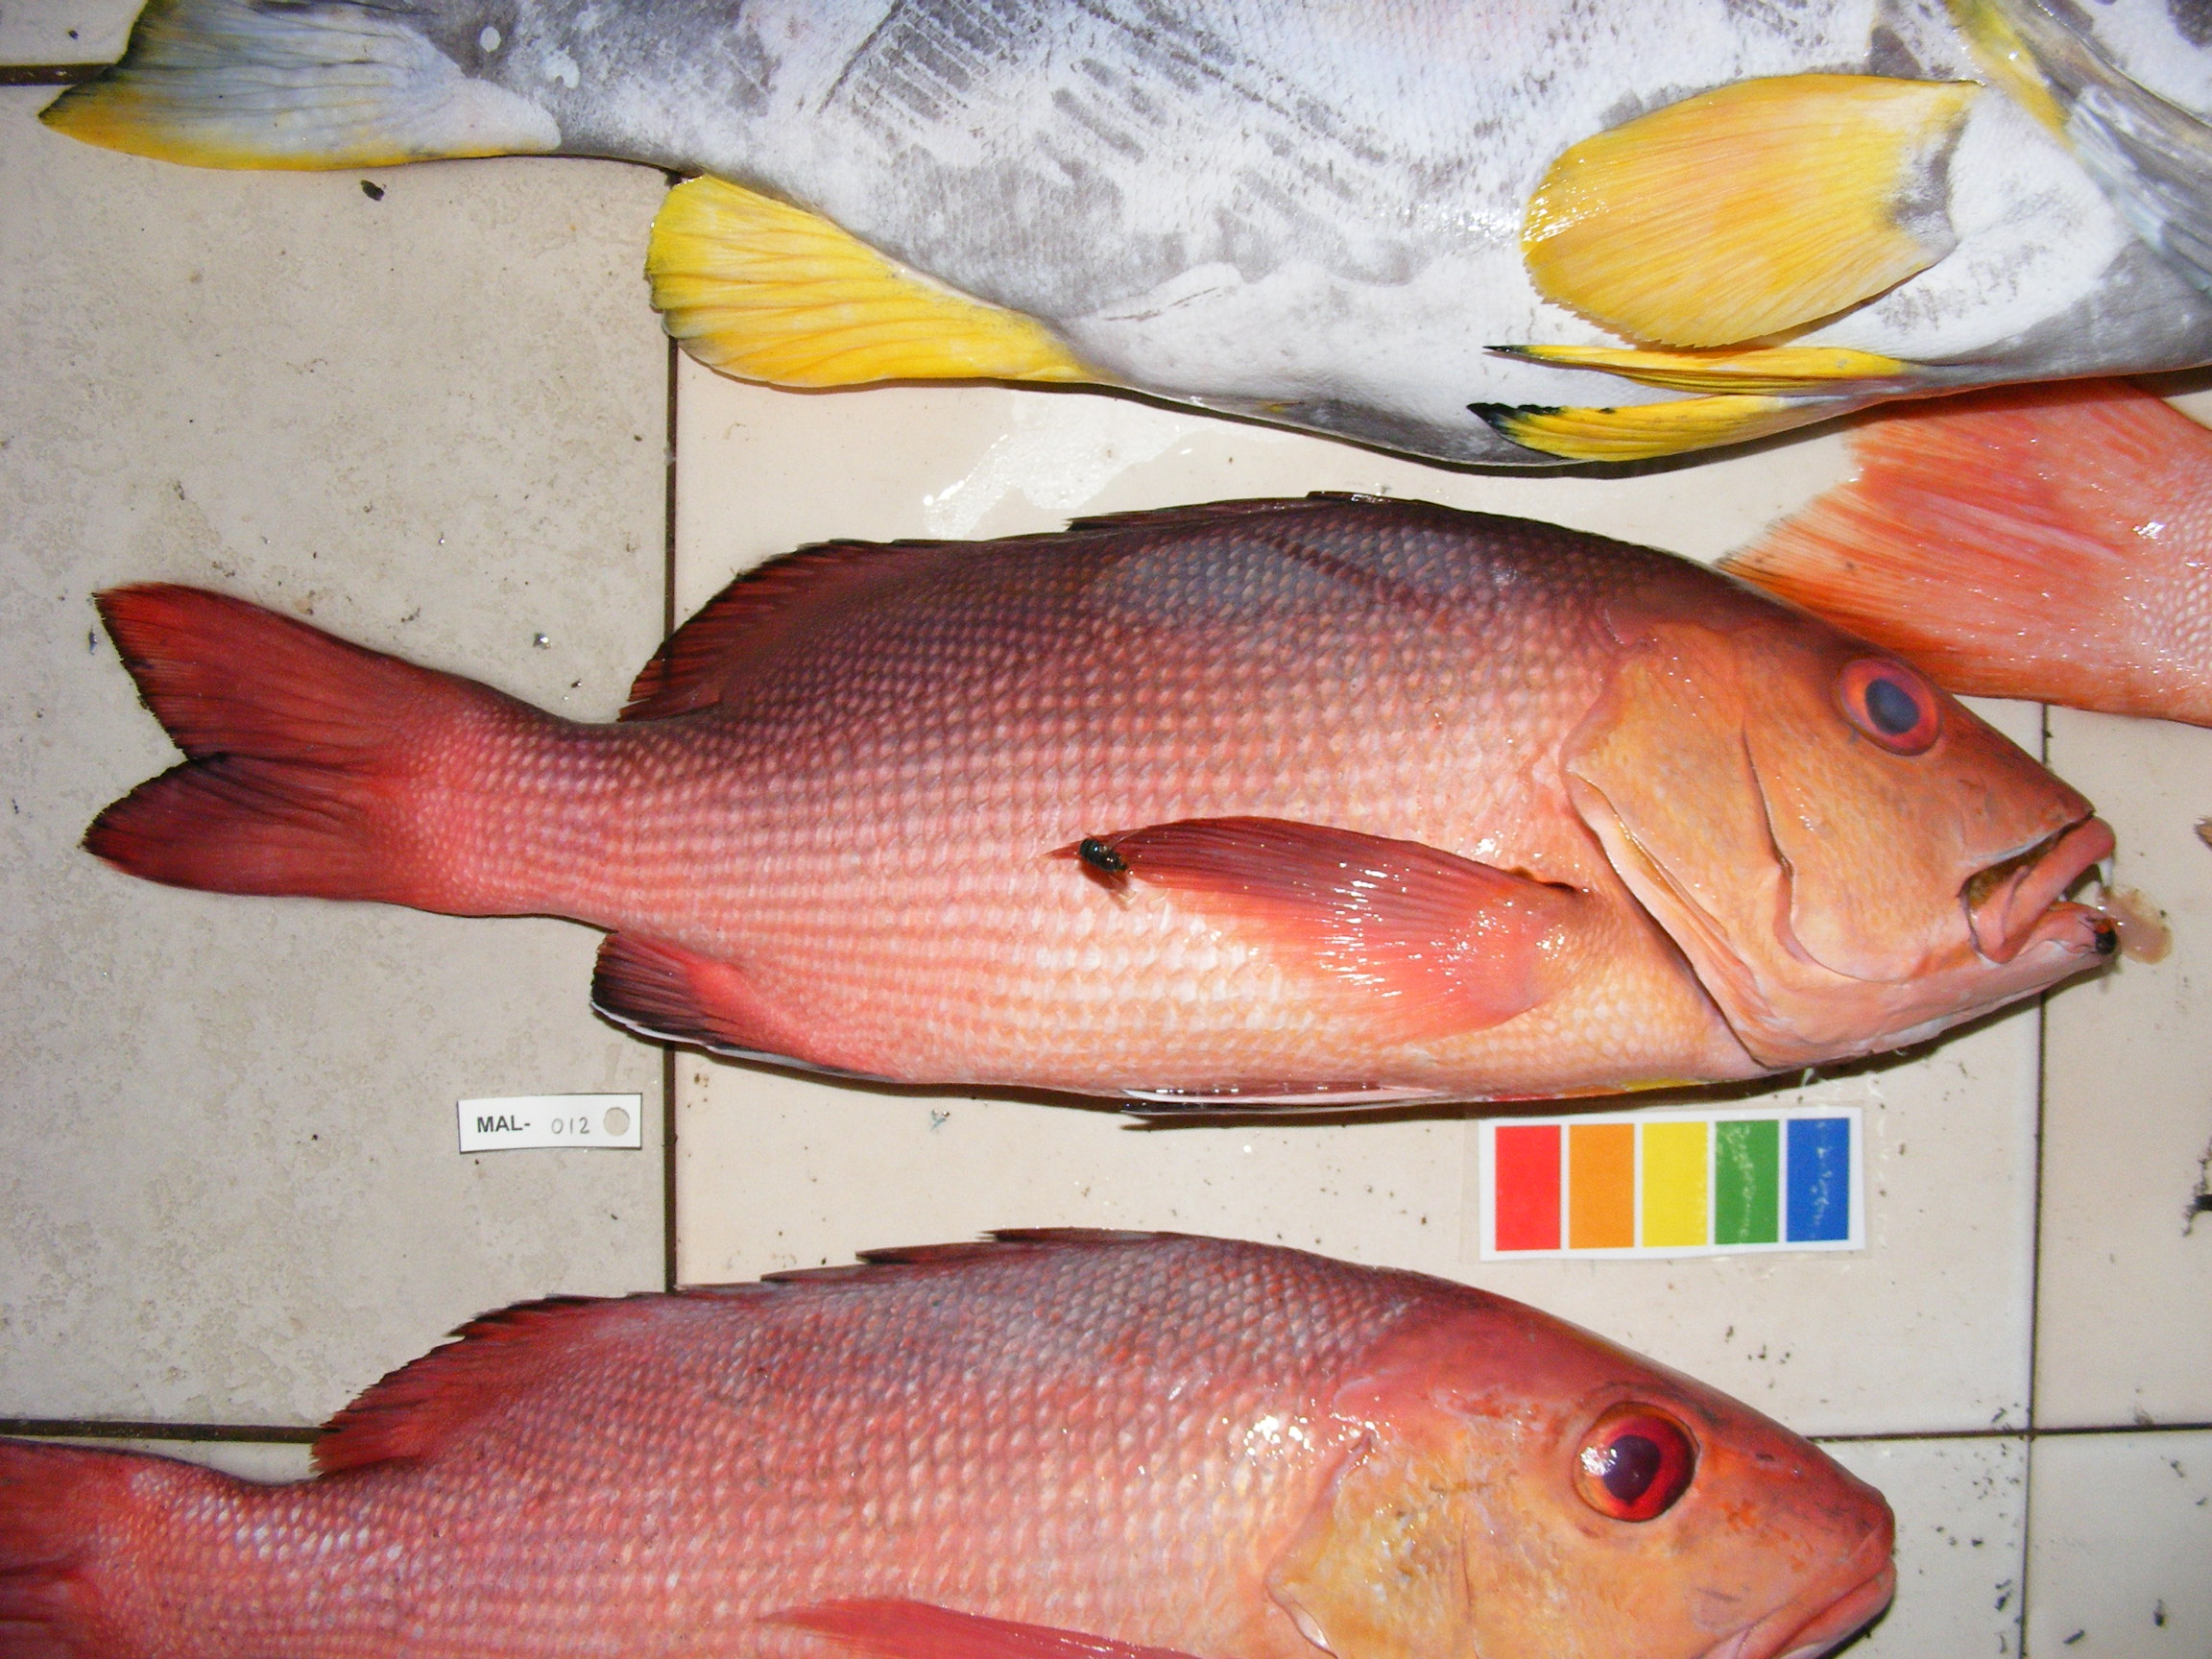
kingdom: Animalia
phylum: Chordata
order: Perciformes
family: Lutjanidae
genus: Lutjanus
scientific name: Lutjanus bohar
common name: Red bass
